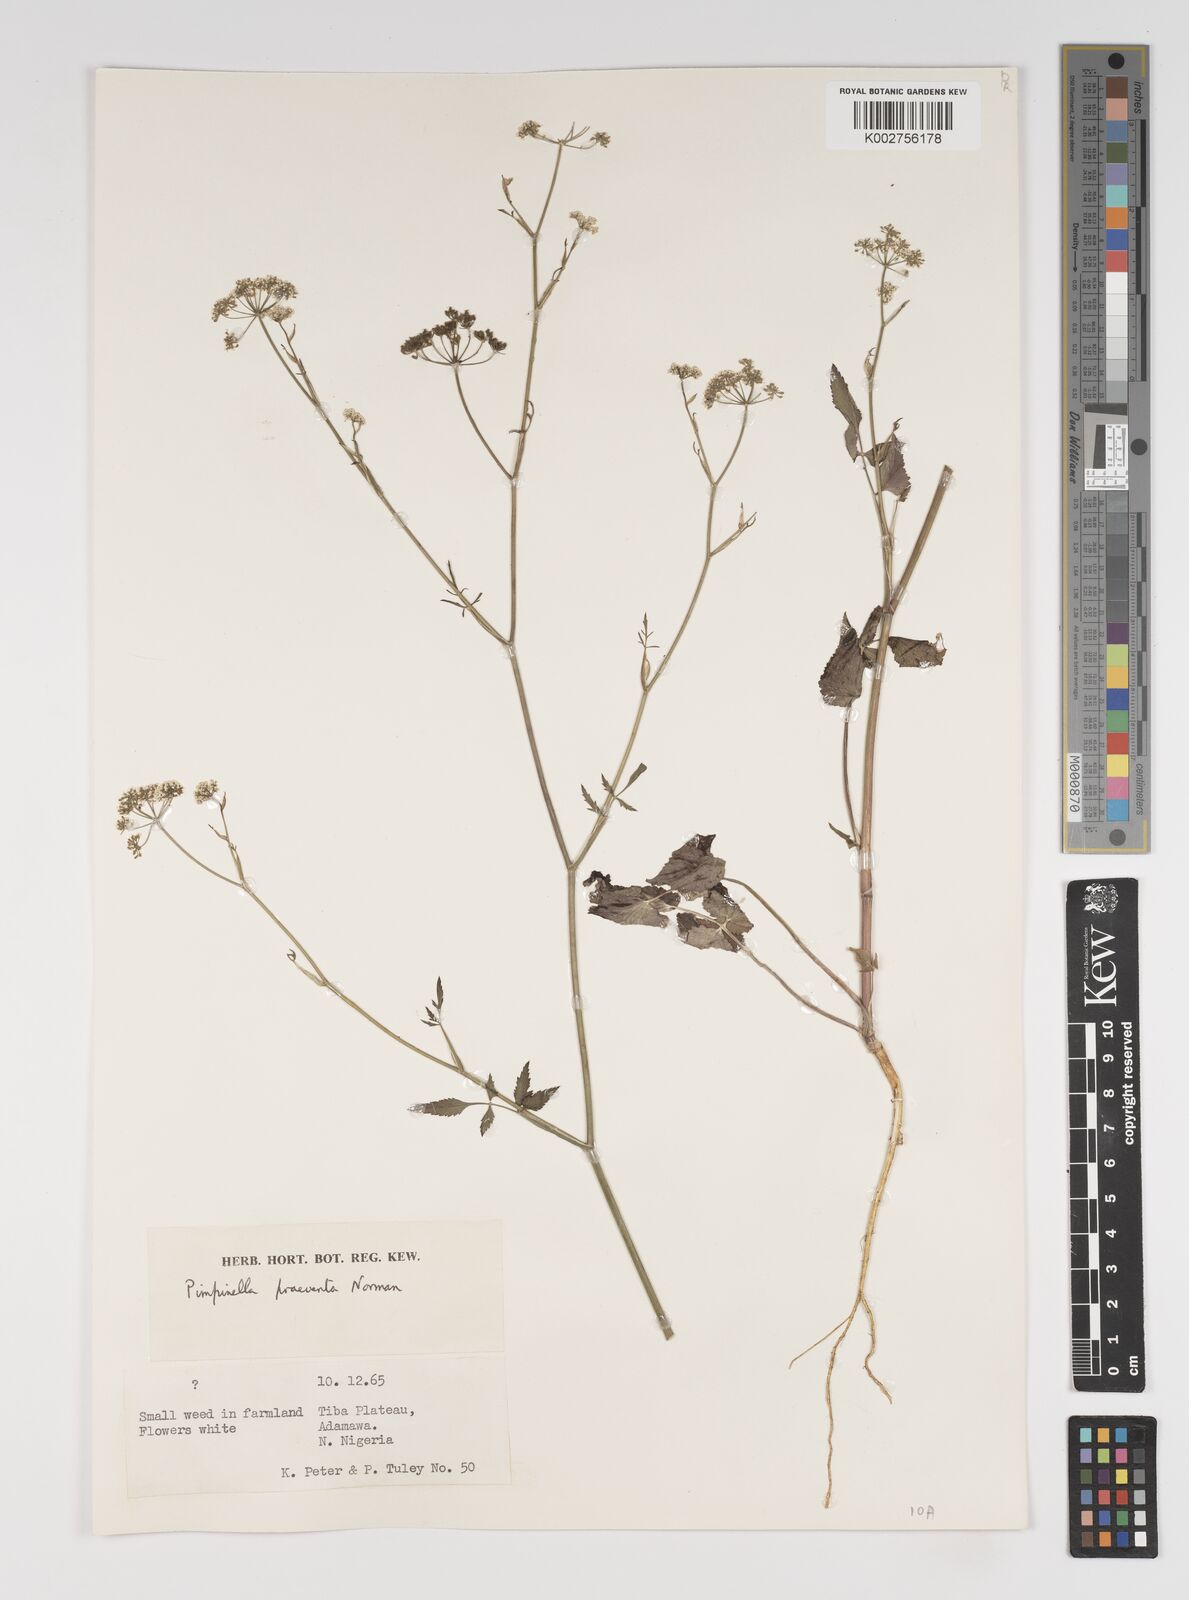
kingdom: Plantae
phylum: Tracheophyta
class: Magnoliopsida
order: Apiales
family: Apiaceae
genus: Pimpinella
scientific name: Pimpinella hirtella
